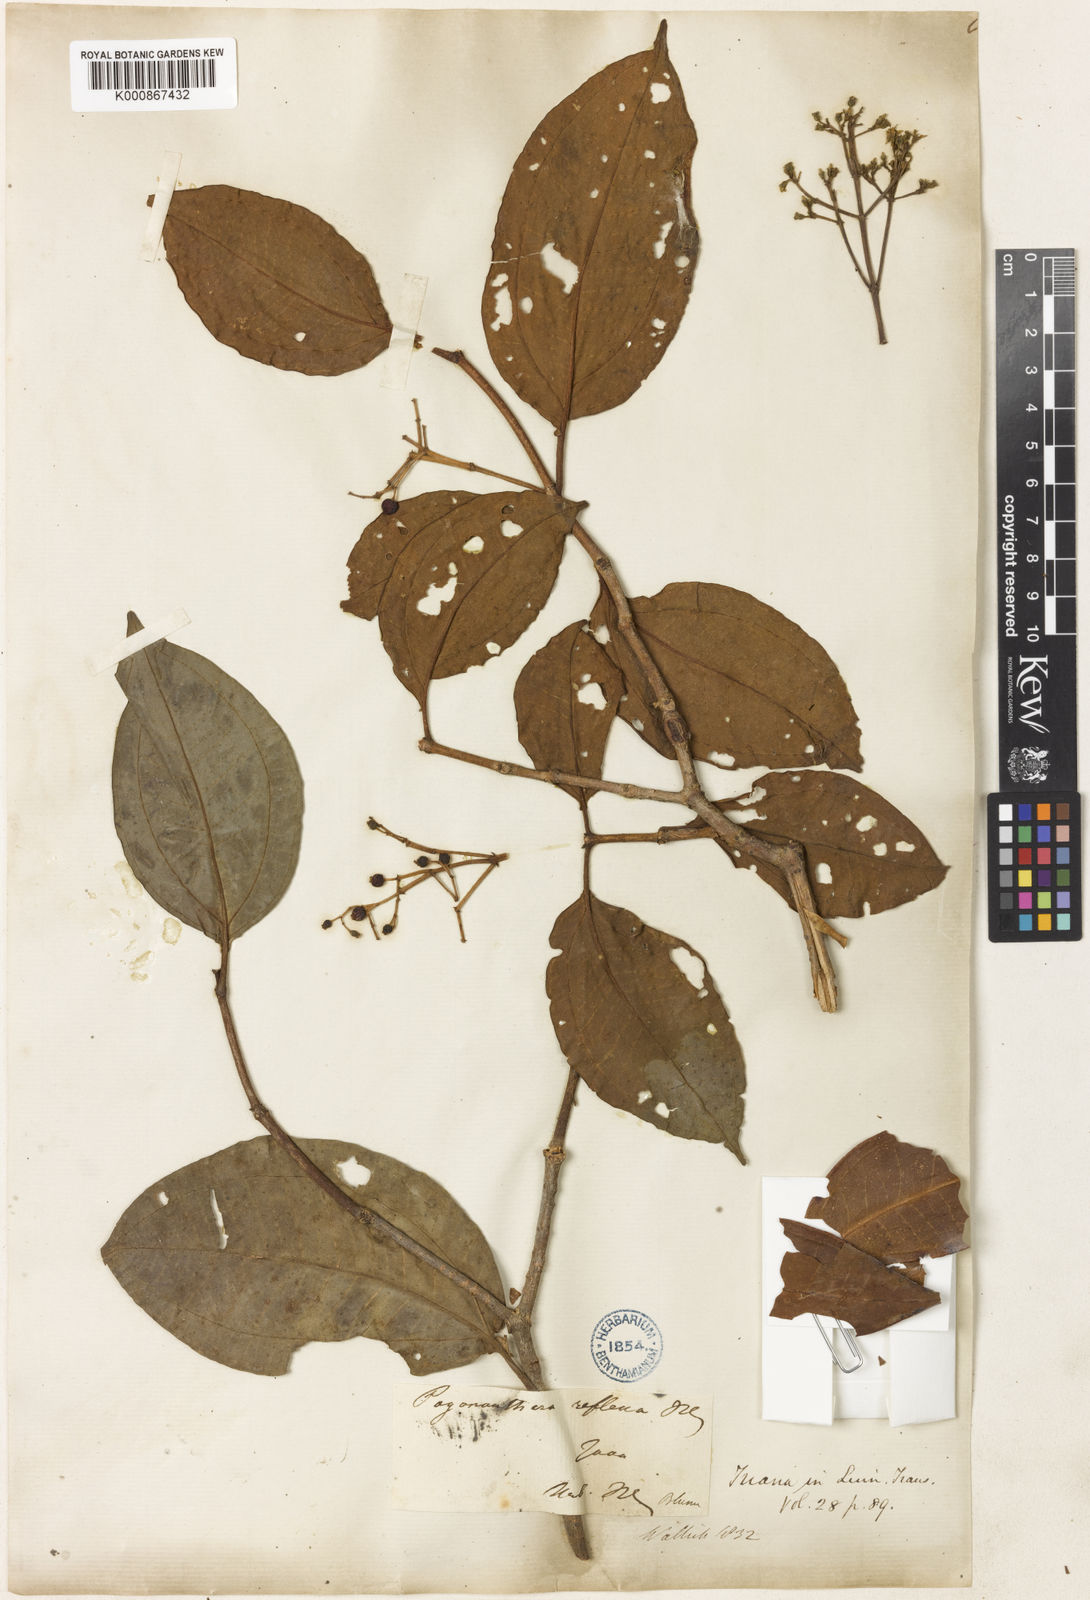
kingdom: Plantae
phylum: Tracheophyta
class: Magnoliopsida
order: Myrtales
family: Melastomataceae
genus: Pachycentria
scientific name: Pachycentria pulverulenta
